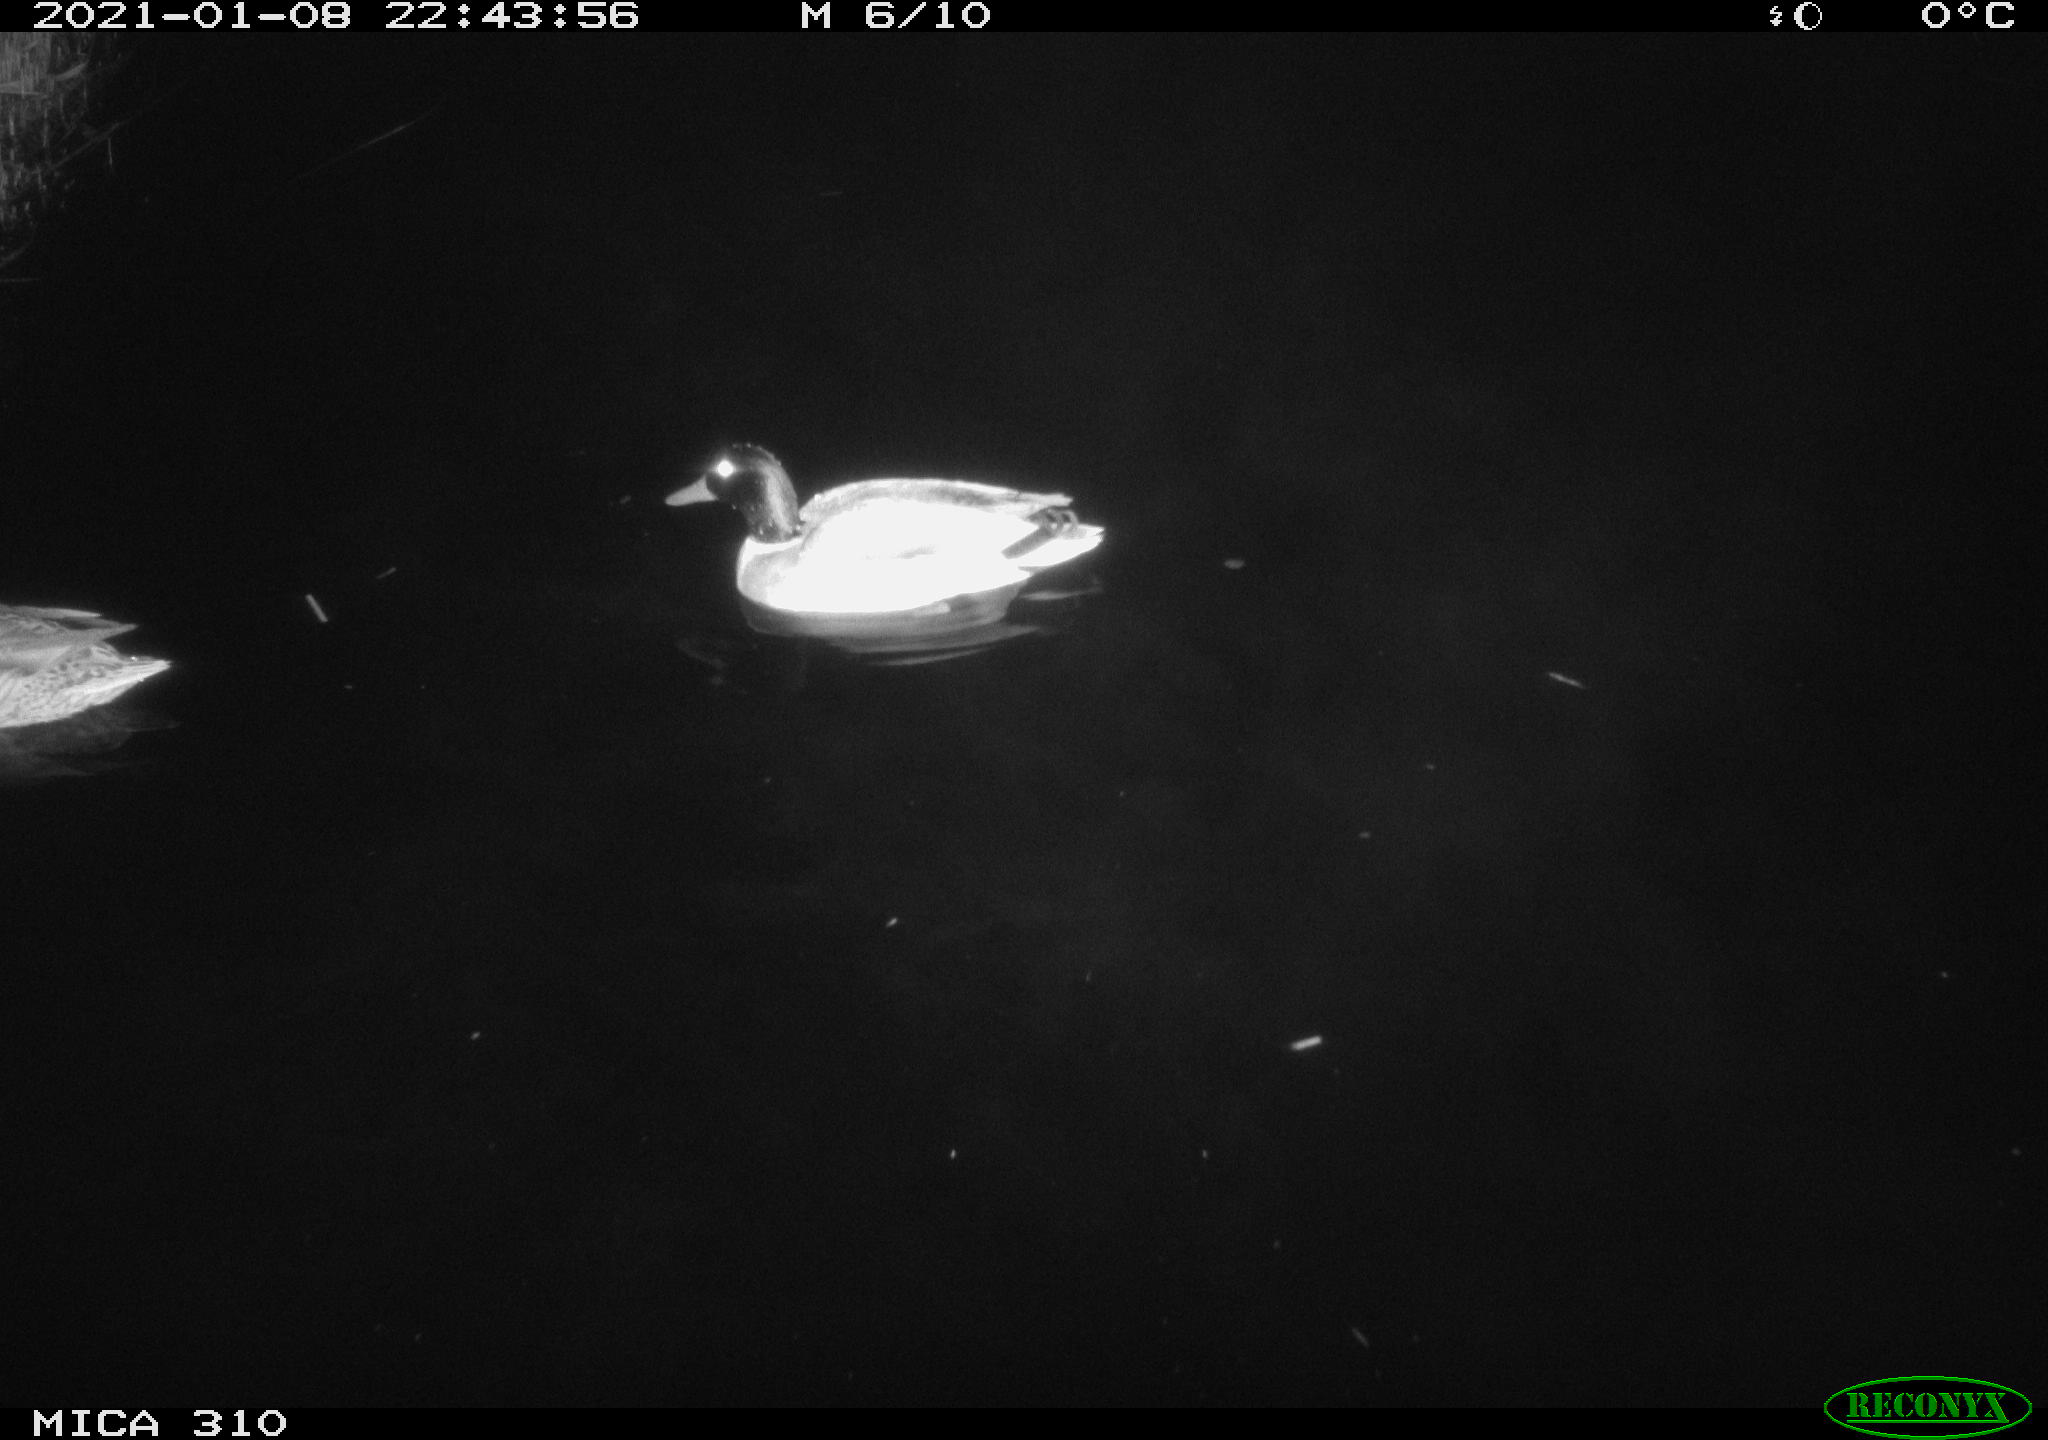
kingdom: Animalia
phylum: Chordata
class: Aves
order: Anseriformes
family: Anatidae
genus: Anas
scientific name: Anas platyrhynchos
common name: Mallard
